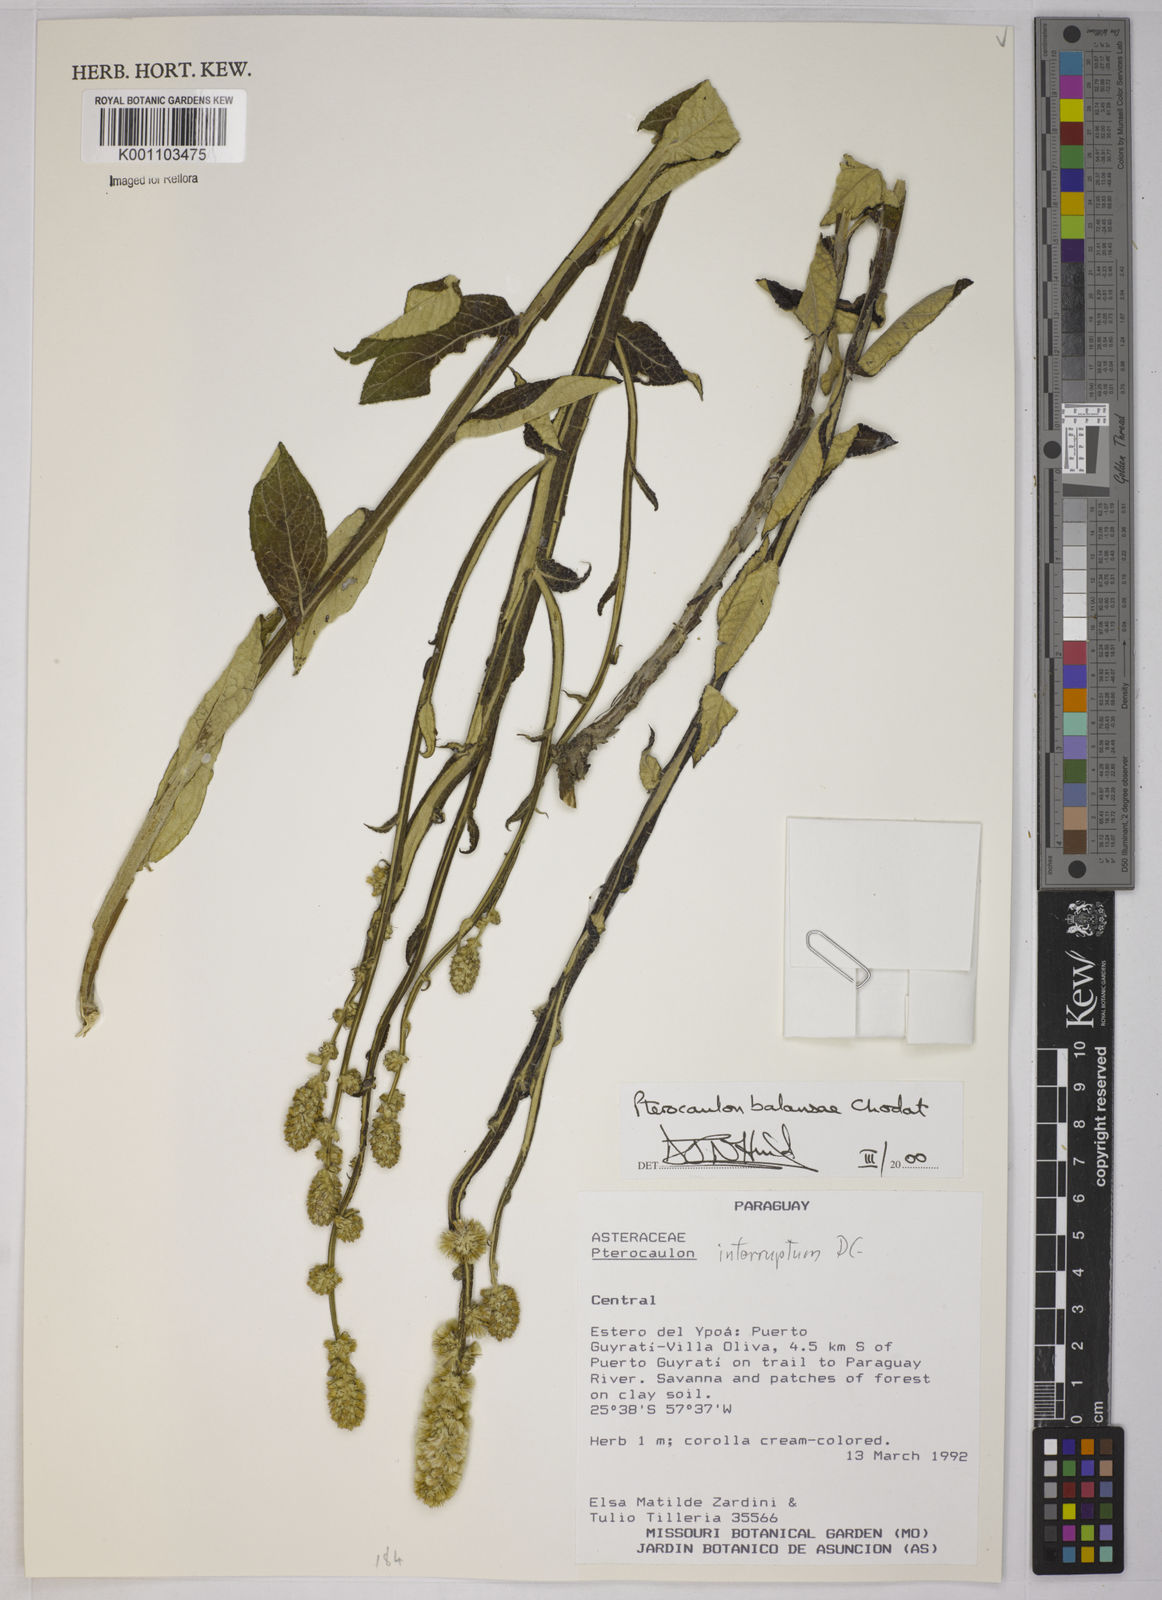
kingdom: Plantae
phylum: Tracheophyta
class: Magnoliopsida
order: Asterales
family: Asteraceae
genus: Pterocaulon
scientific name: Pterocaulon balansae
